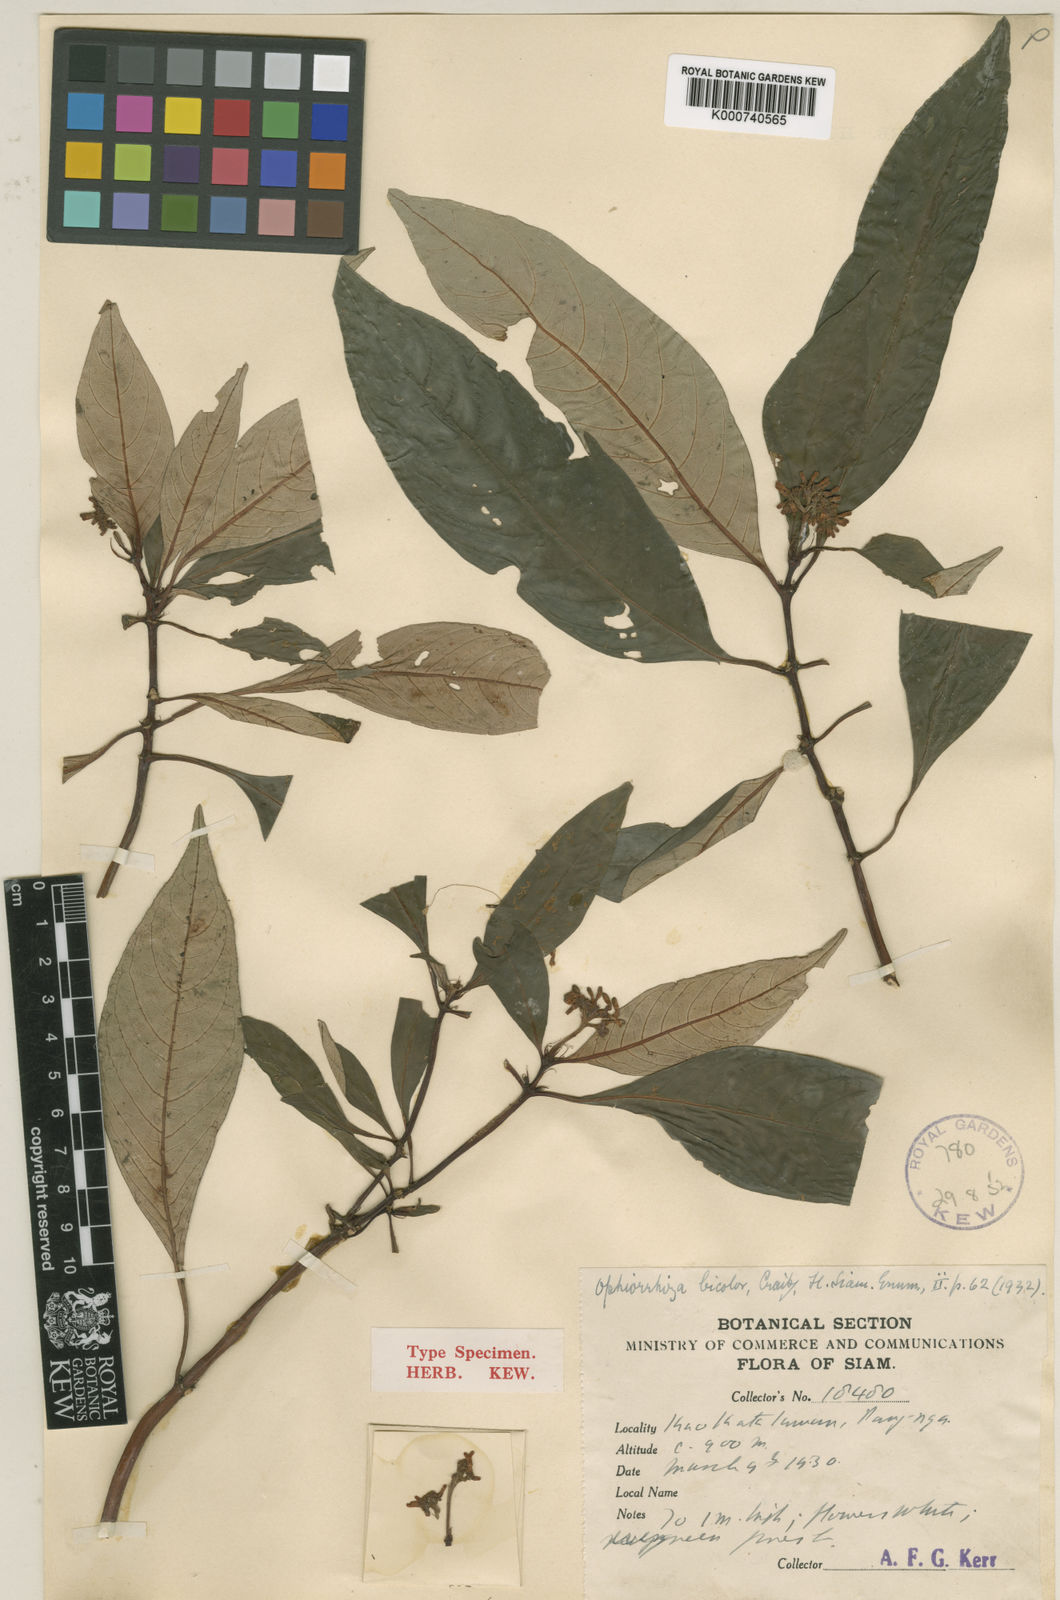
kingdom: Plantae
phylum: Tracheophyta
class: Magnoliopsida
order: Gentianales
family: Rubiaceae
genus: Ophiorrhiza
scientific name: Ophiorrhiza erubescens
